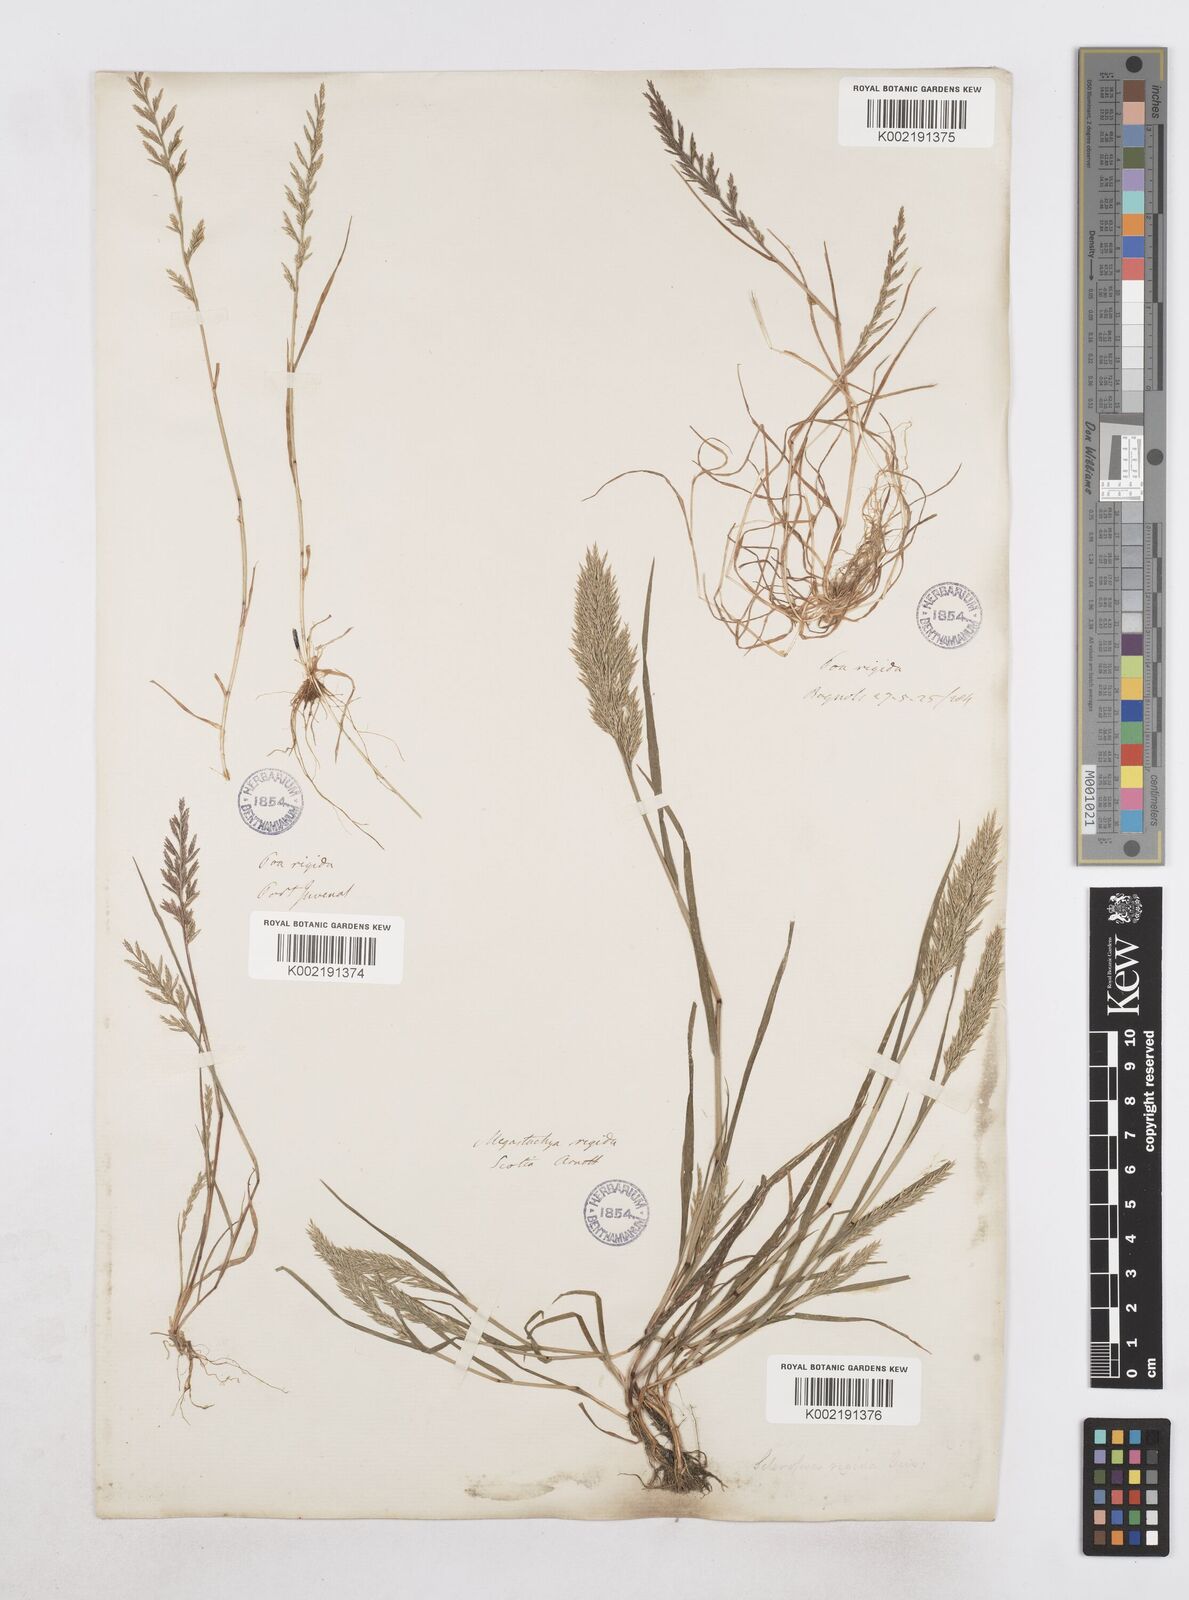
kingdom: Plantae
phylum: Tracheophyta
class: Liliopsida
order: Poales
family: Poaceae
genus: Catapodium
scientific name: Catapodium rigidum
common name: Fern-grass
